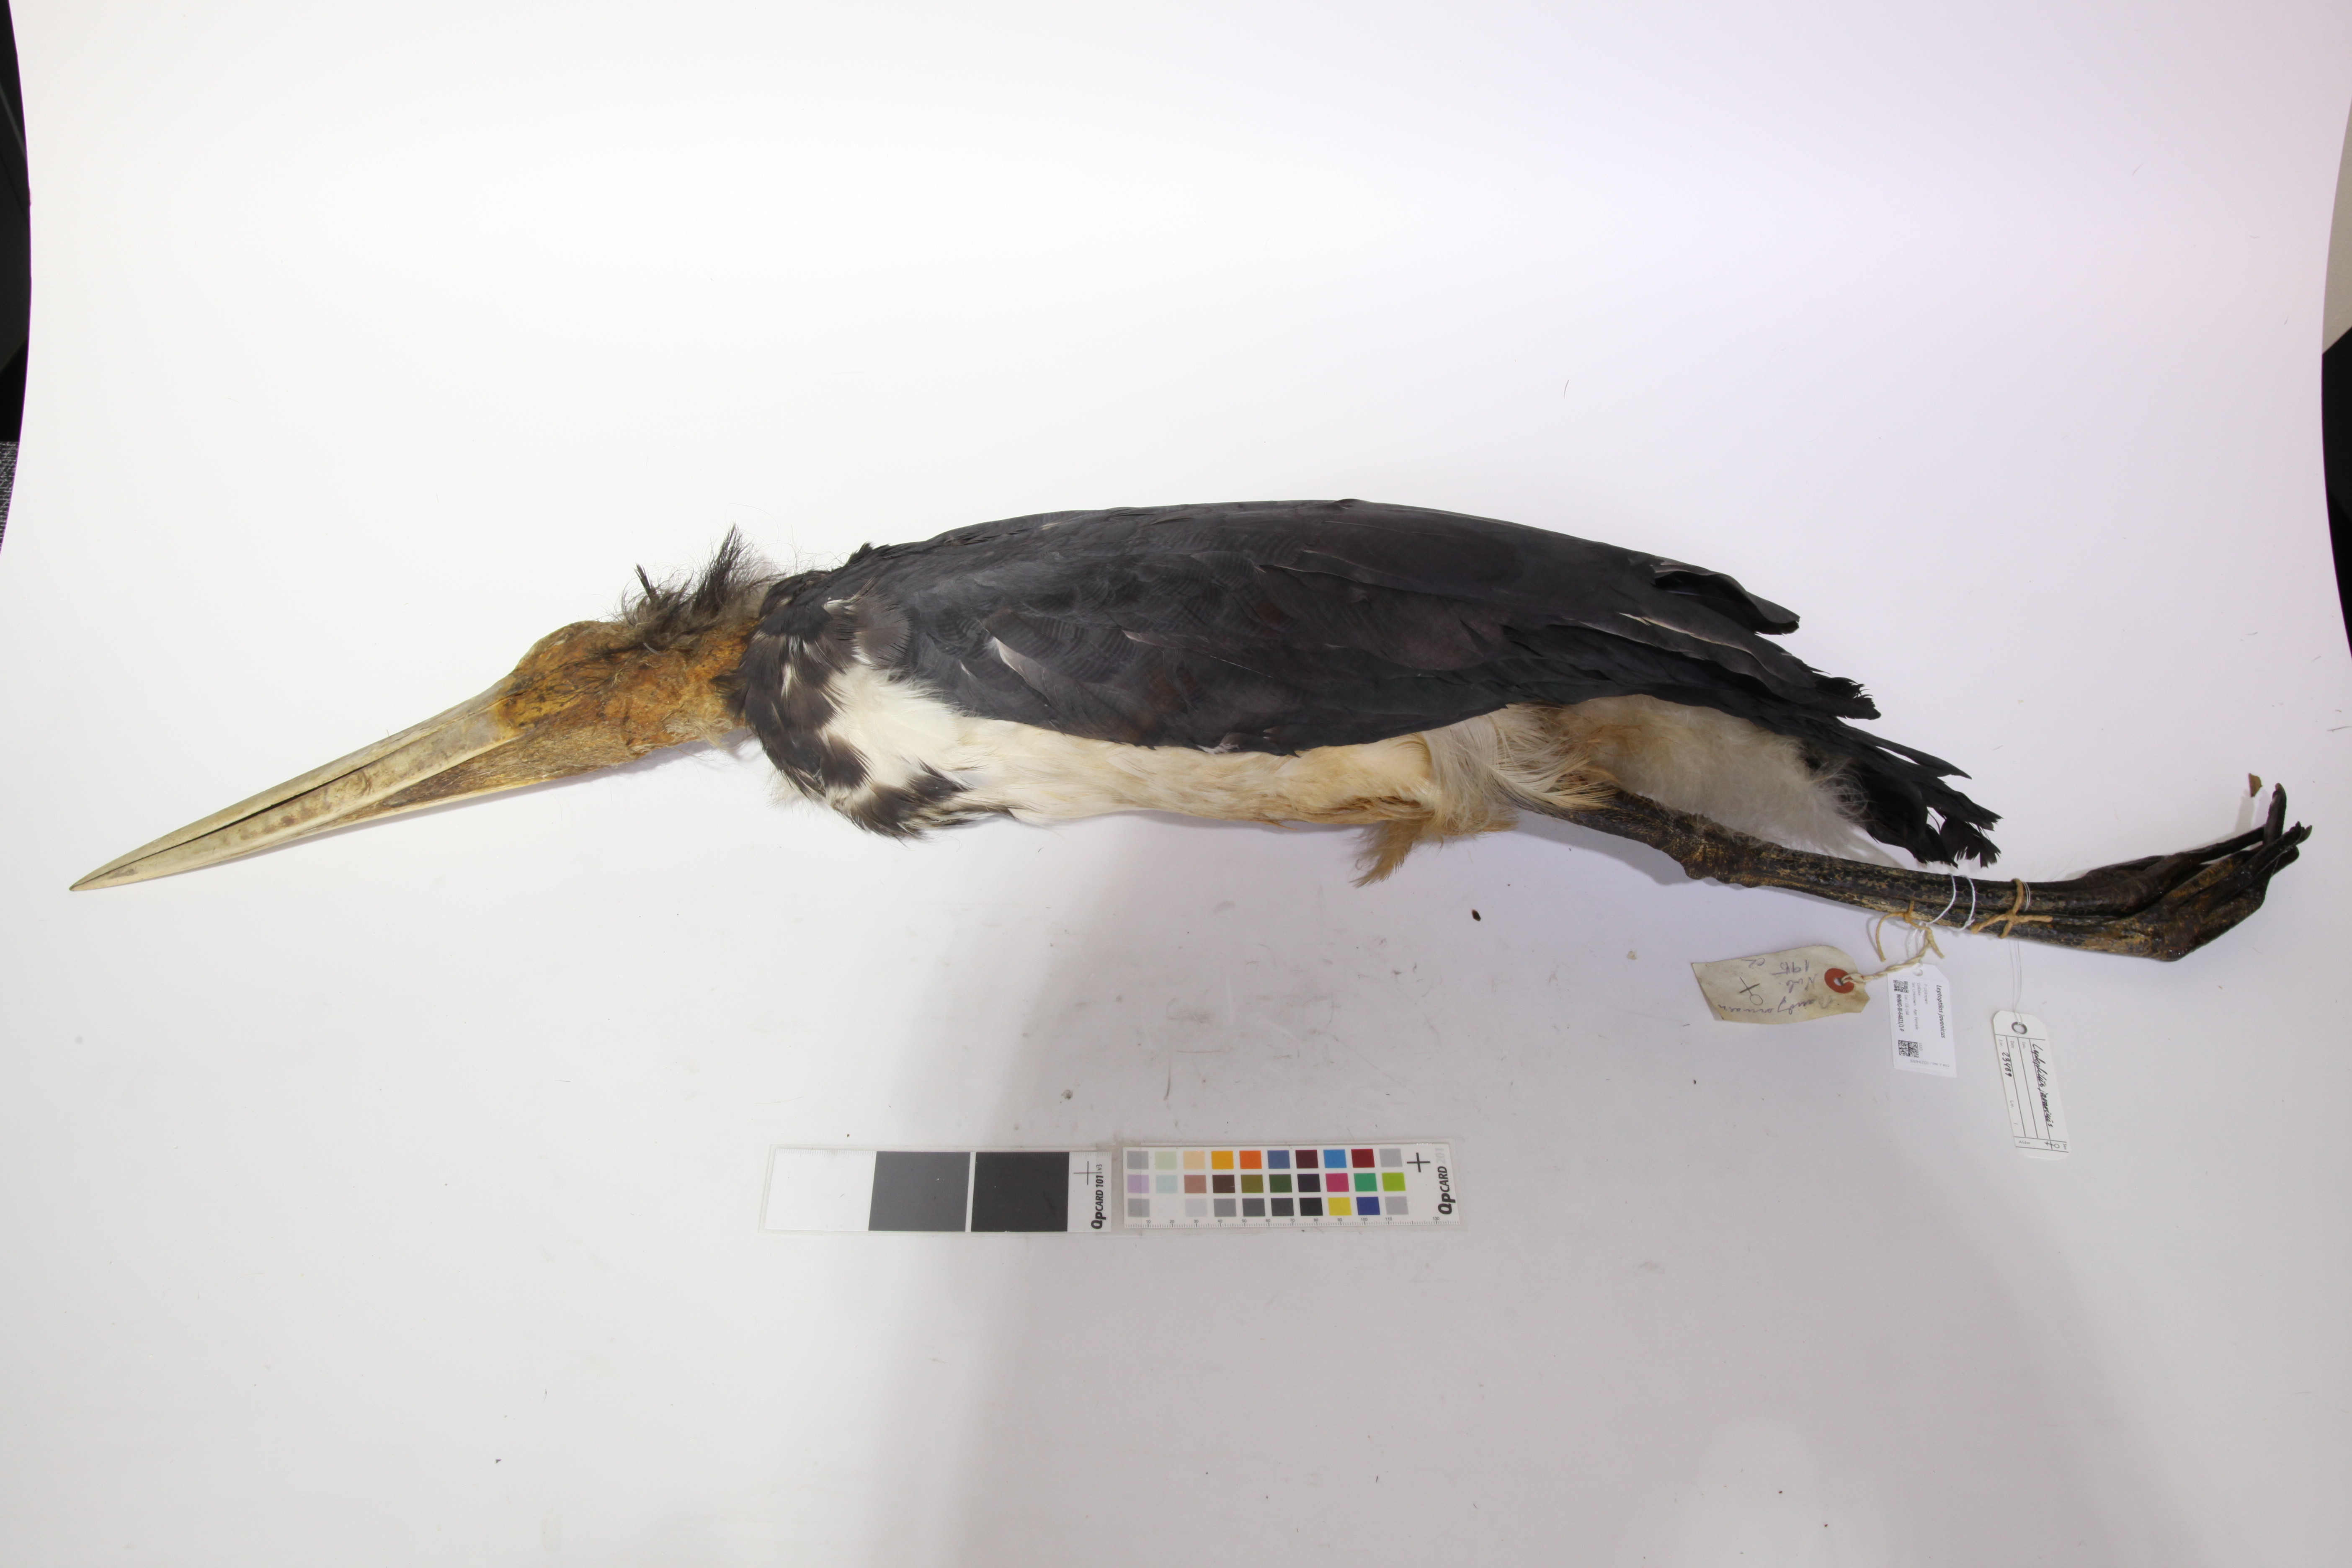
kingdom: Animalia
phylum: Chordata
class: Aves
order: Ciconiiformes
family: Ciconiidae
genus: Leptoptilos
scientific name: Leptoptilos javanicus
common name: Lesser adjutant
